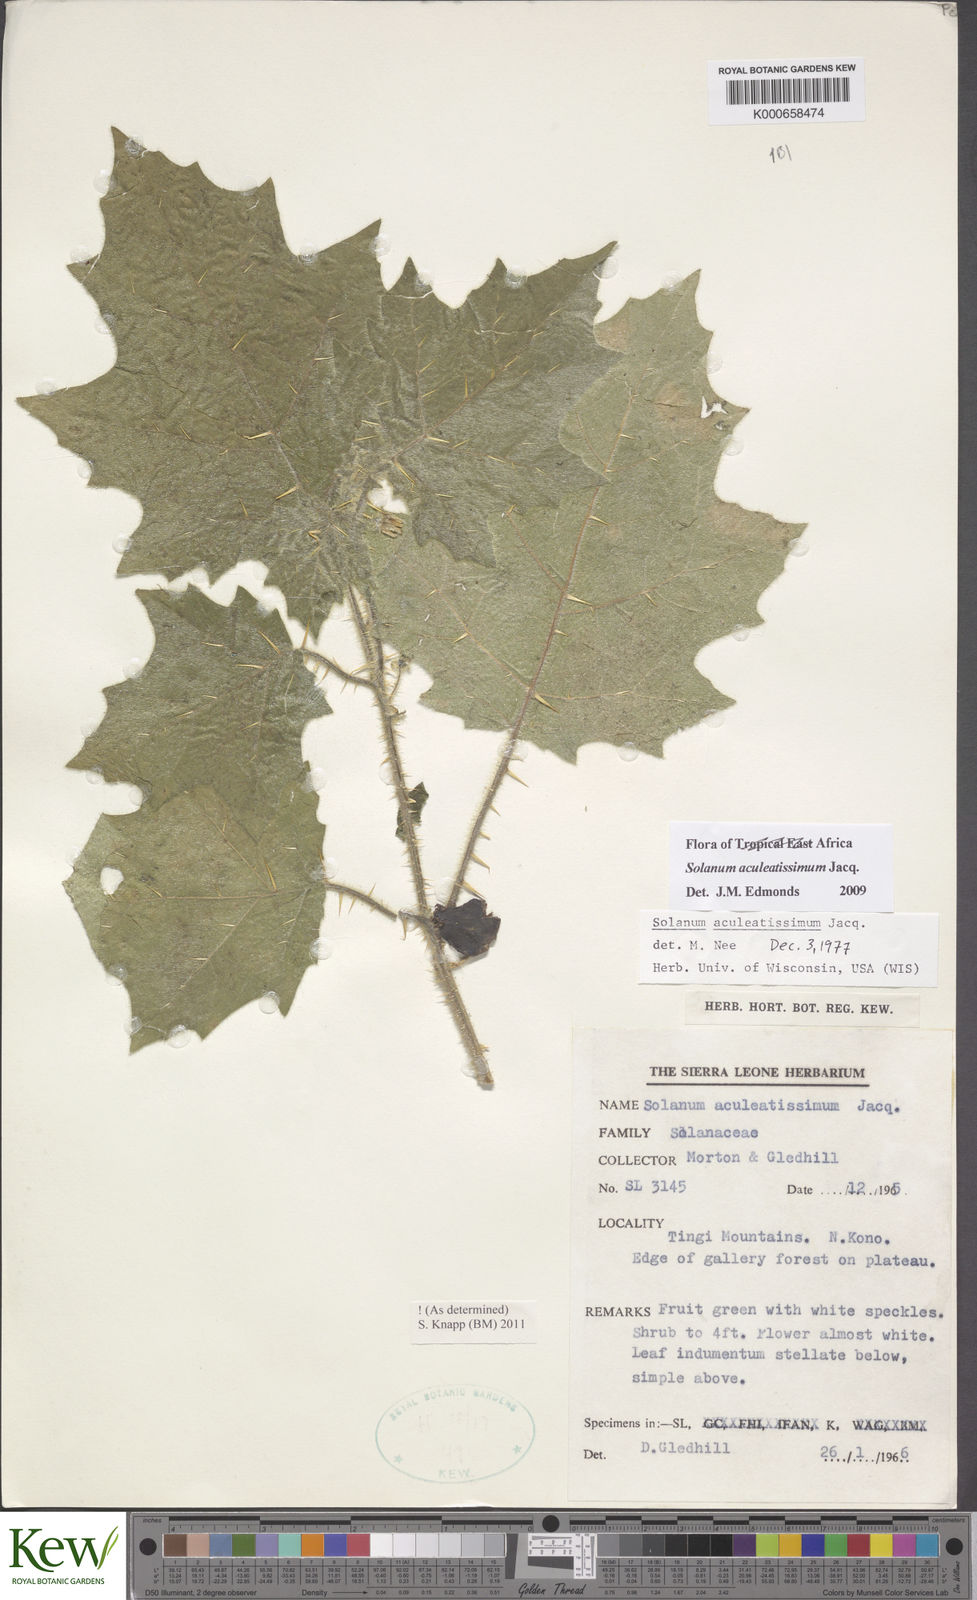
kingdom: Plantae
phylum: Tracheophyta
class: Magnoliopsida
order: Solanales
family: Solanaceae
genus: Solanum
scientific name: Solanum aculeatissimum
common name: Dutch eggplant
